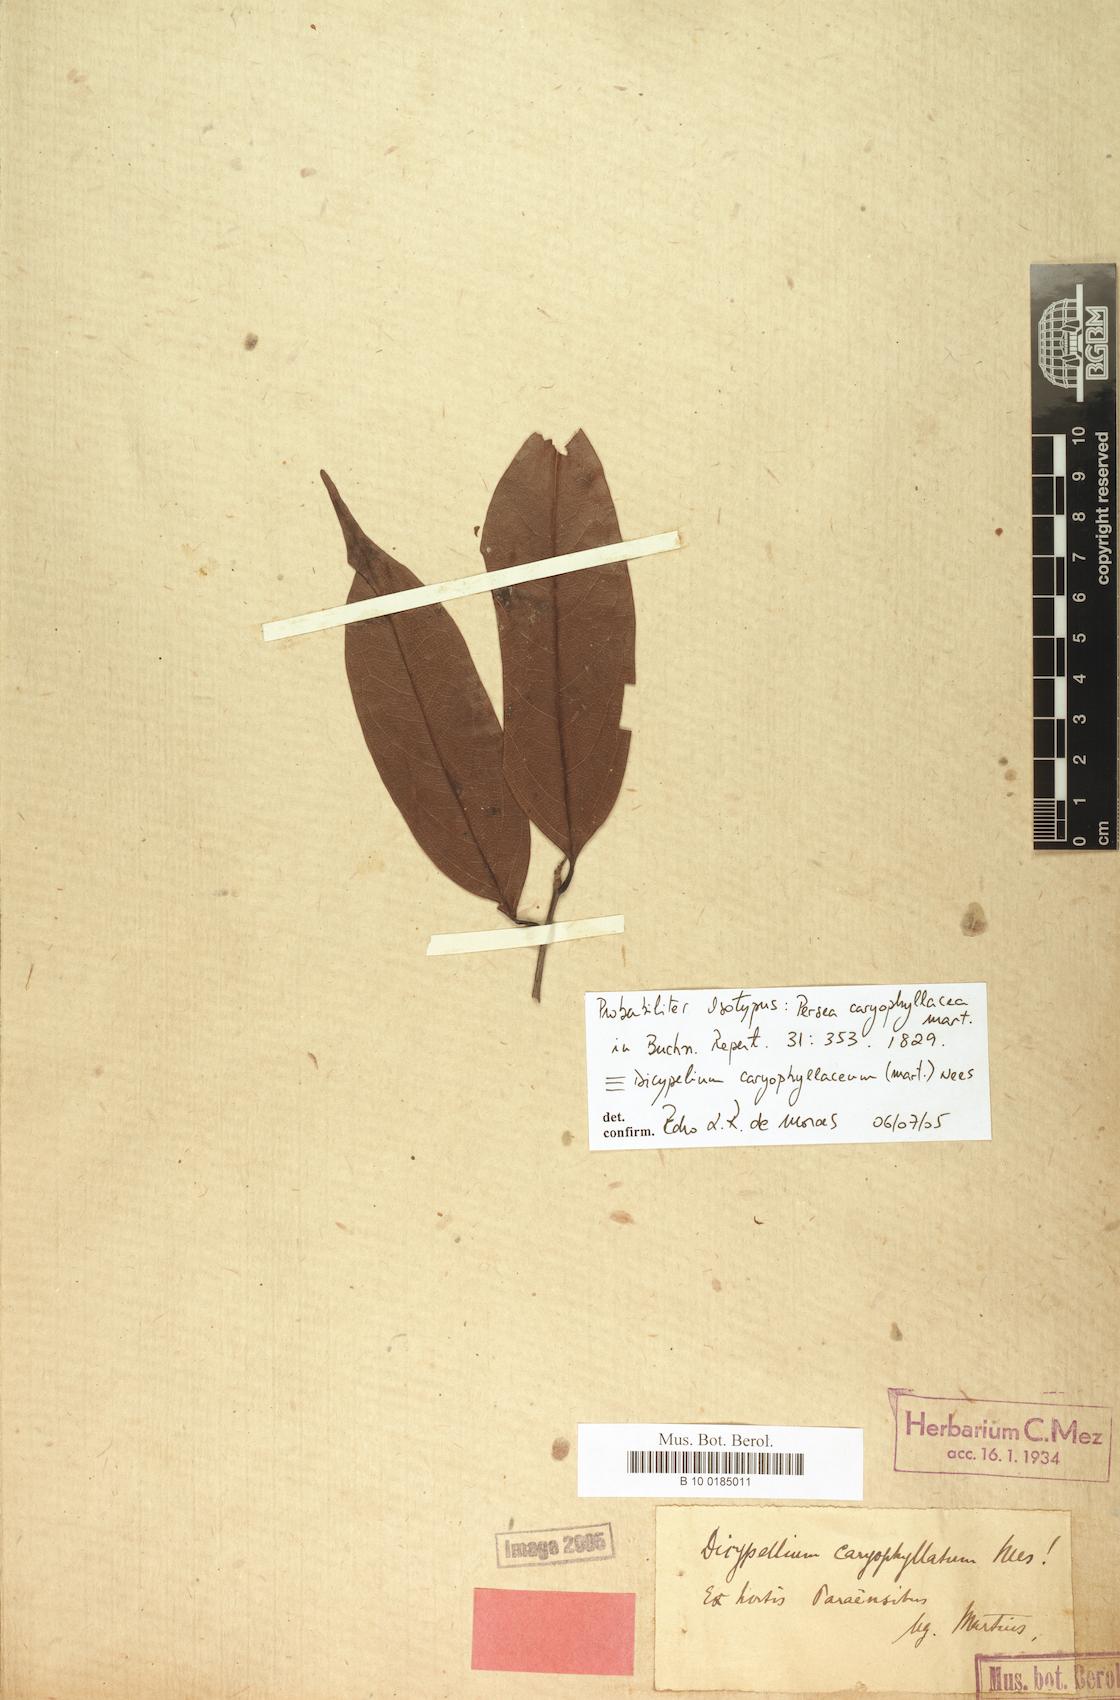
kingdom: Plantae
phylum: Tracheophyta
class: Magnoliopsida
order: Laurales
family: Lauraceae
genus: Dicypellium
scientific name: Dicypellium caryophyllaceum
